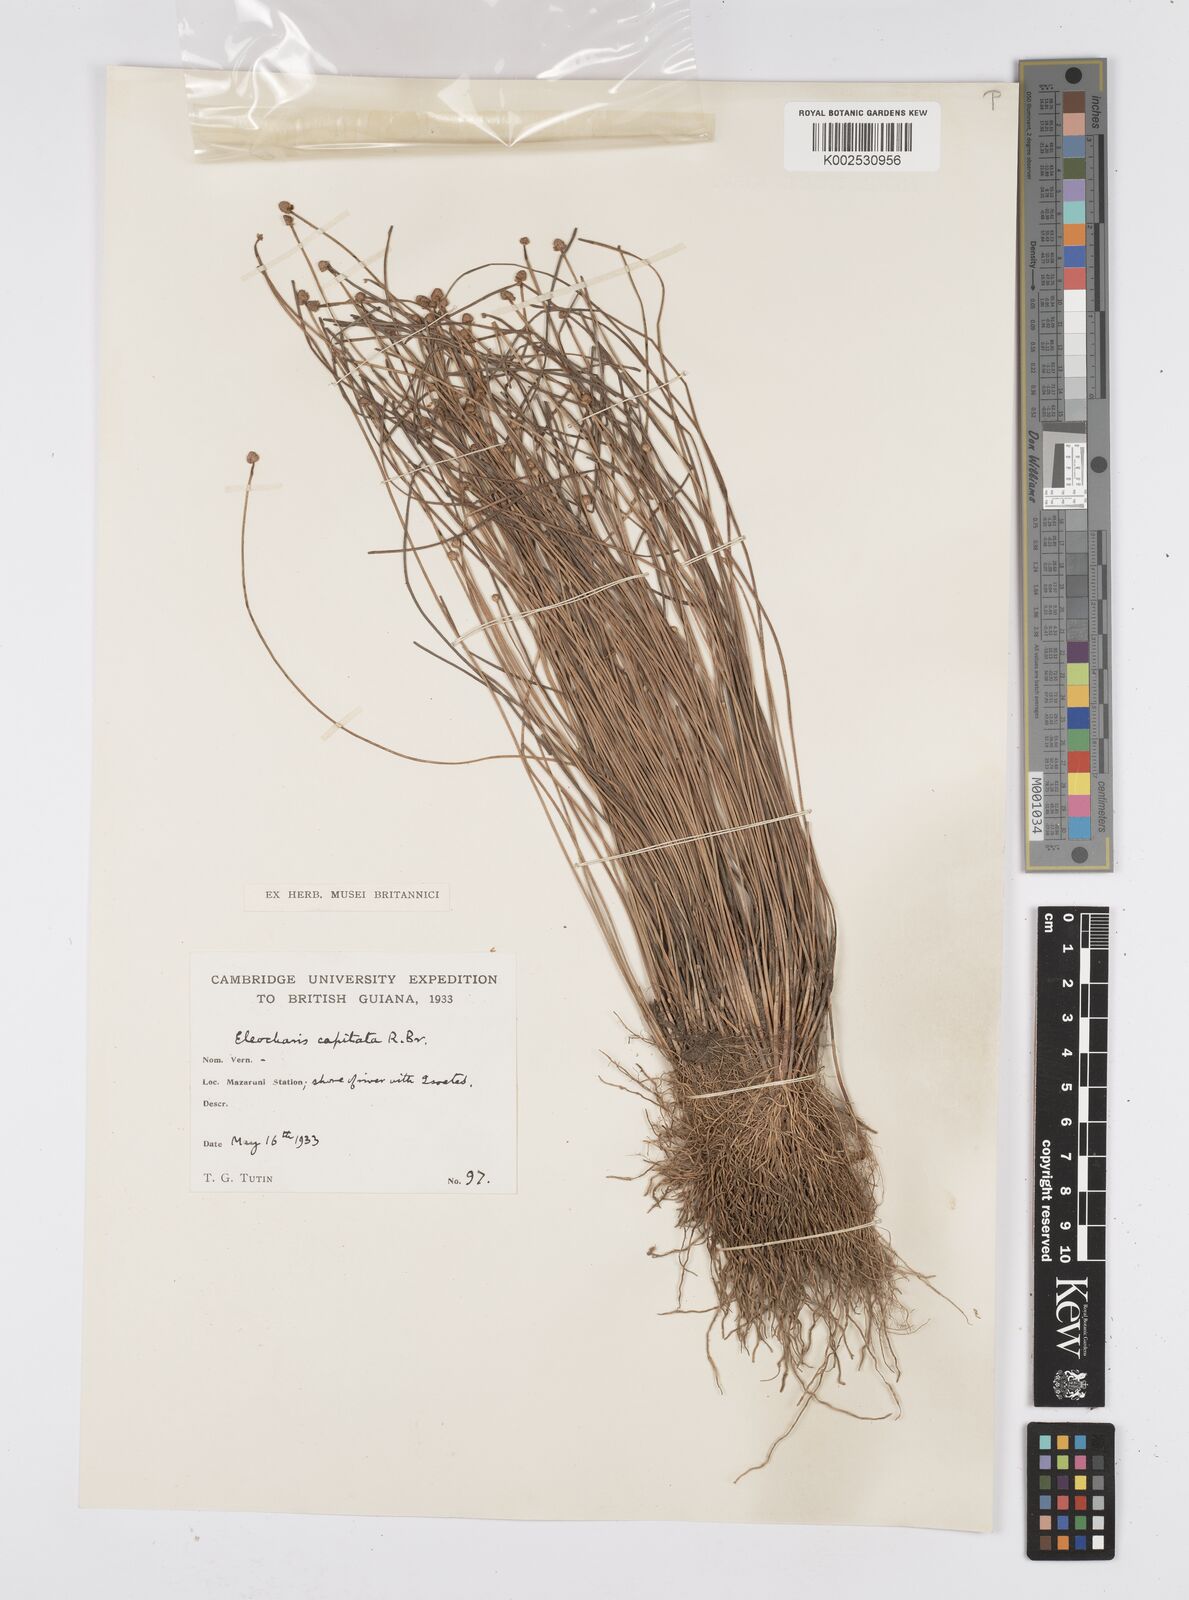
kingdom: Plantae
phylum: Tracheophyta
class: Liliopsida
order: Poales
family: Cyperaceae
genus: Eleocharis
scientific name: Eleocharis geniculata
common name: Canada spikesedge
